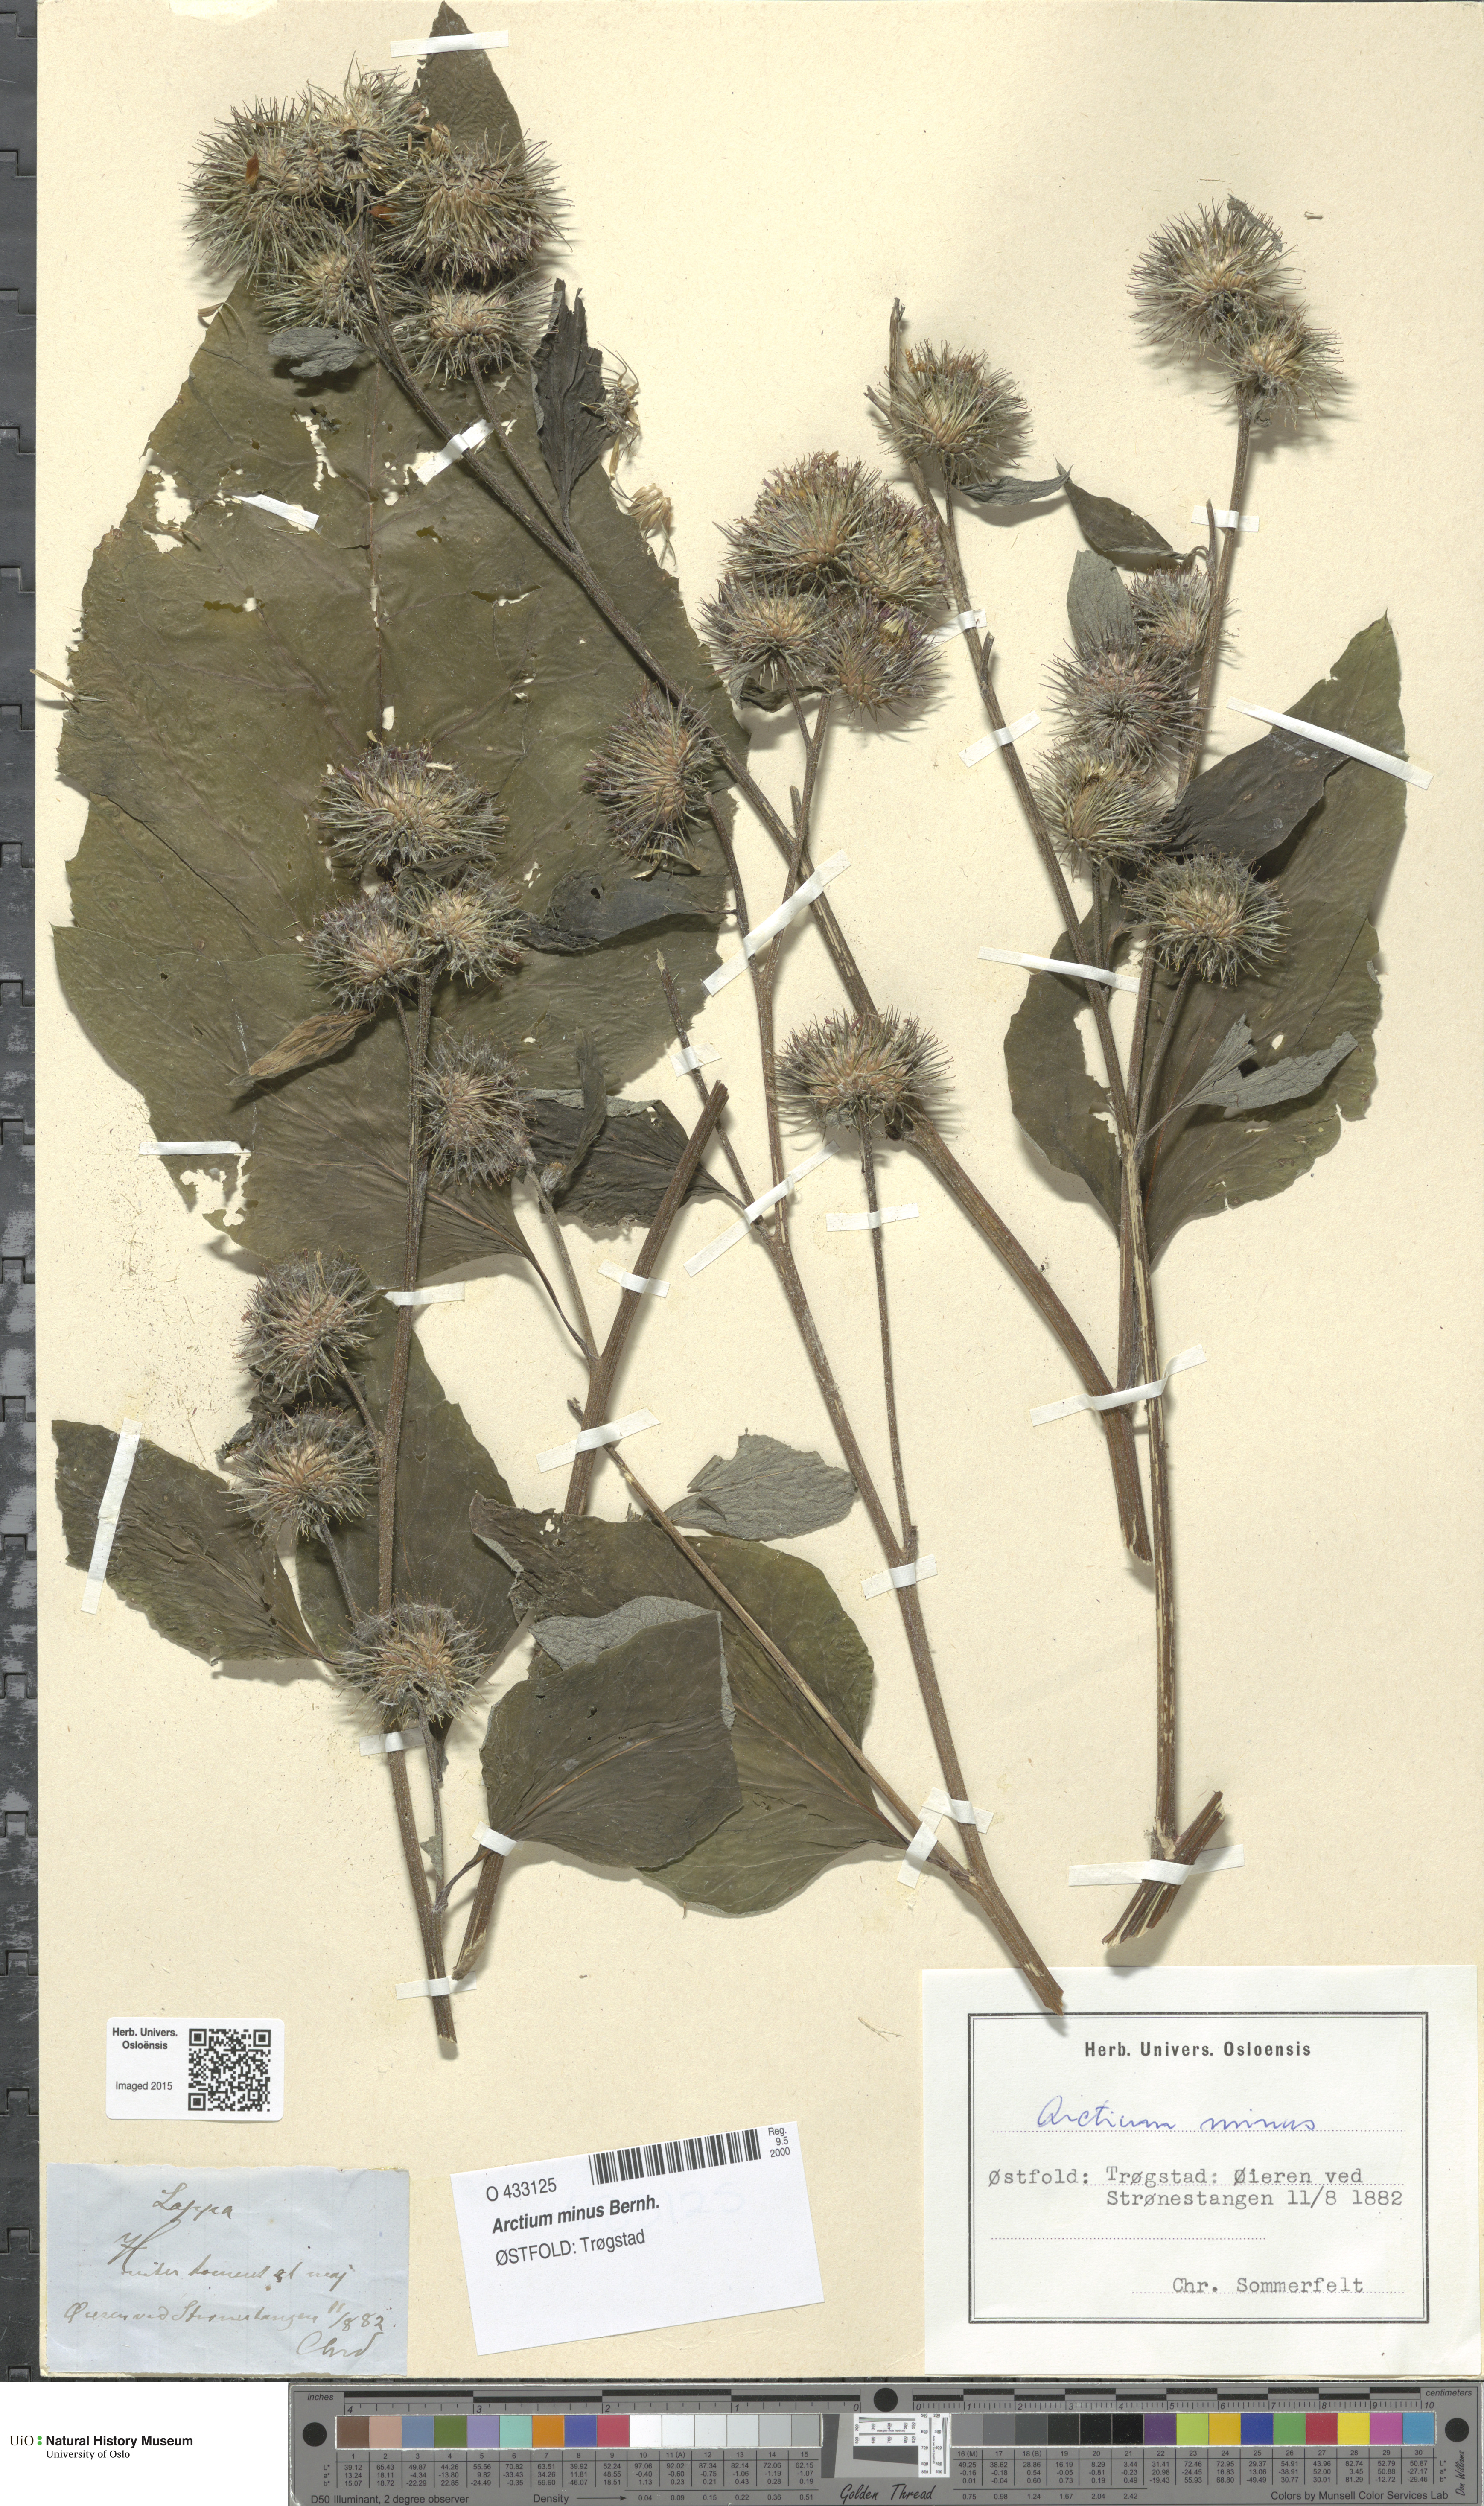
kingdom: Plantae
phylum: Tracheophyta
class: Magnoliopsida
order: Asterales
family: Asteraceae
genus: Arctium
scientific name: Arctium minus
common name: Lesser burdock
